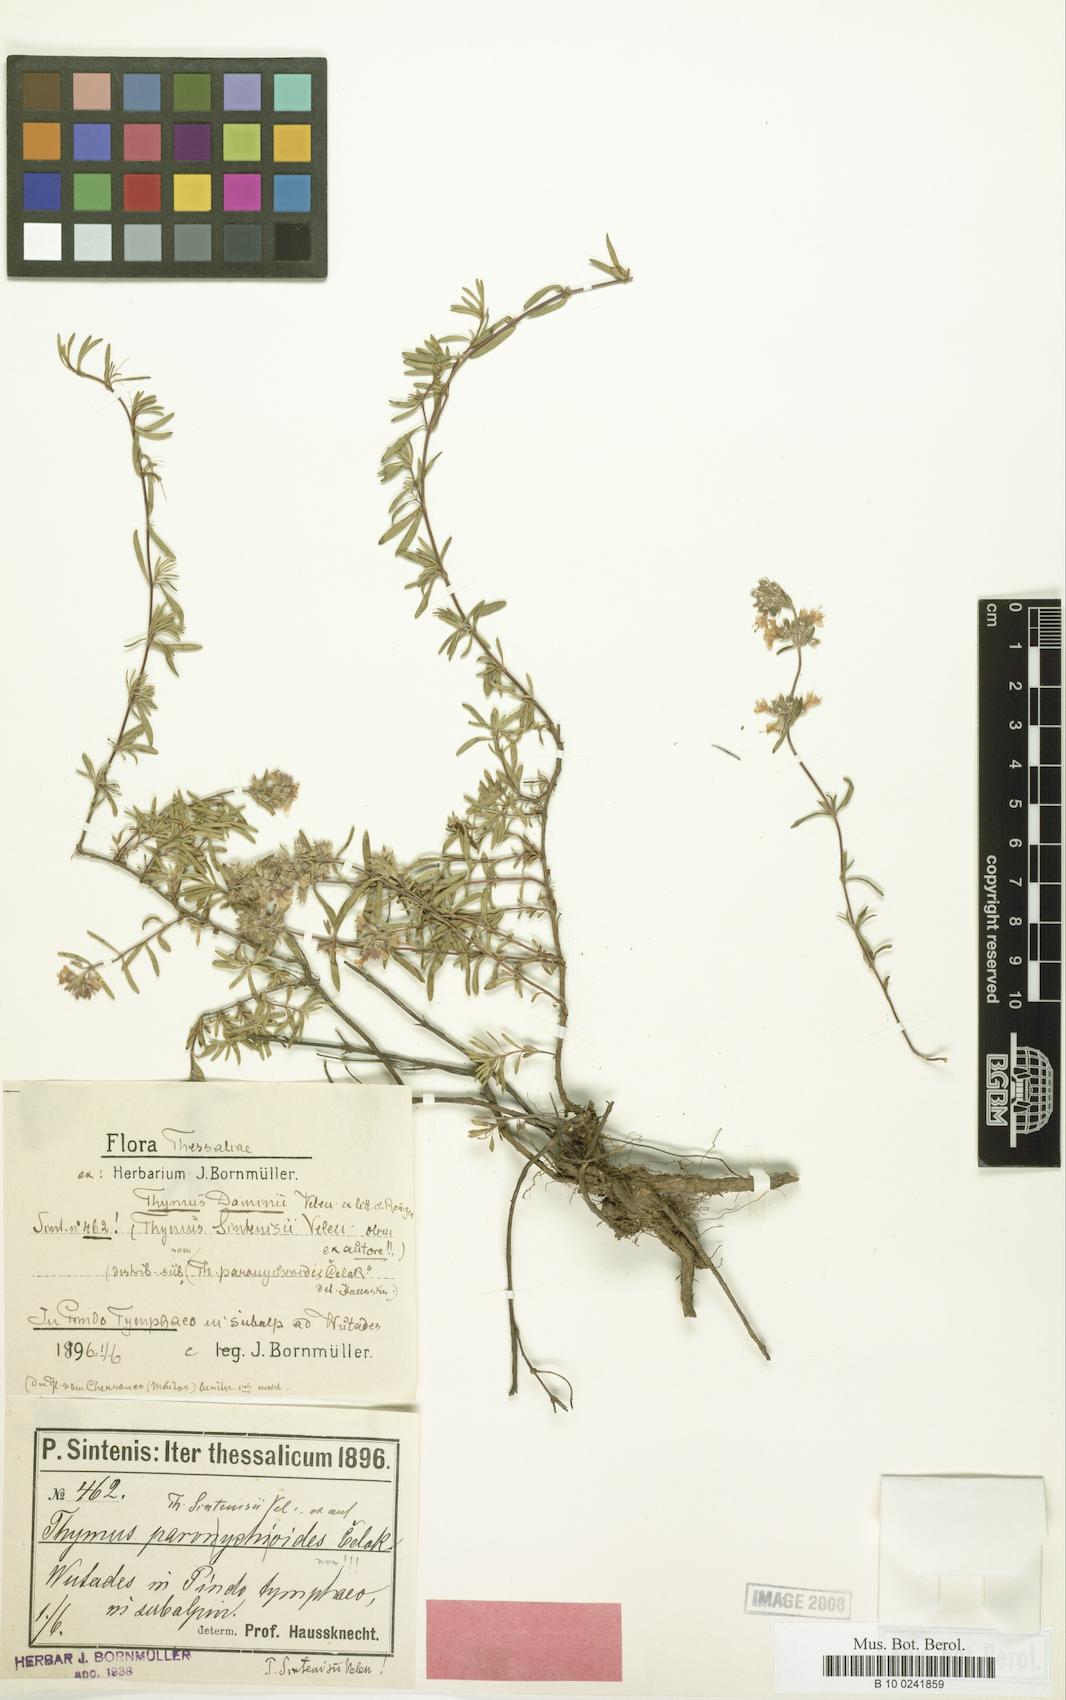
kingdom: Plantae
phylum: Tracheophyta
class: Magnoliopsida
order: Lamiales
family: Lamiaceae
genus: Thymus
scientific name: Thymus sibthorpii
